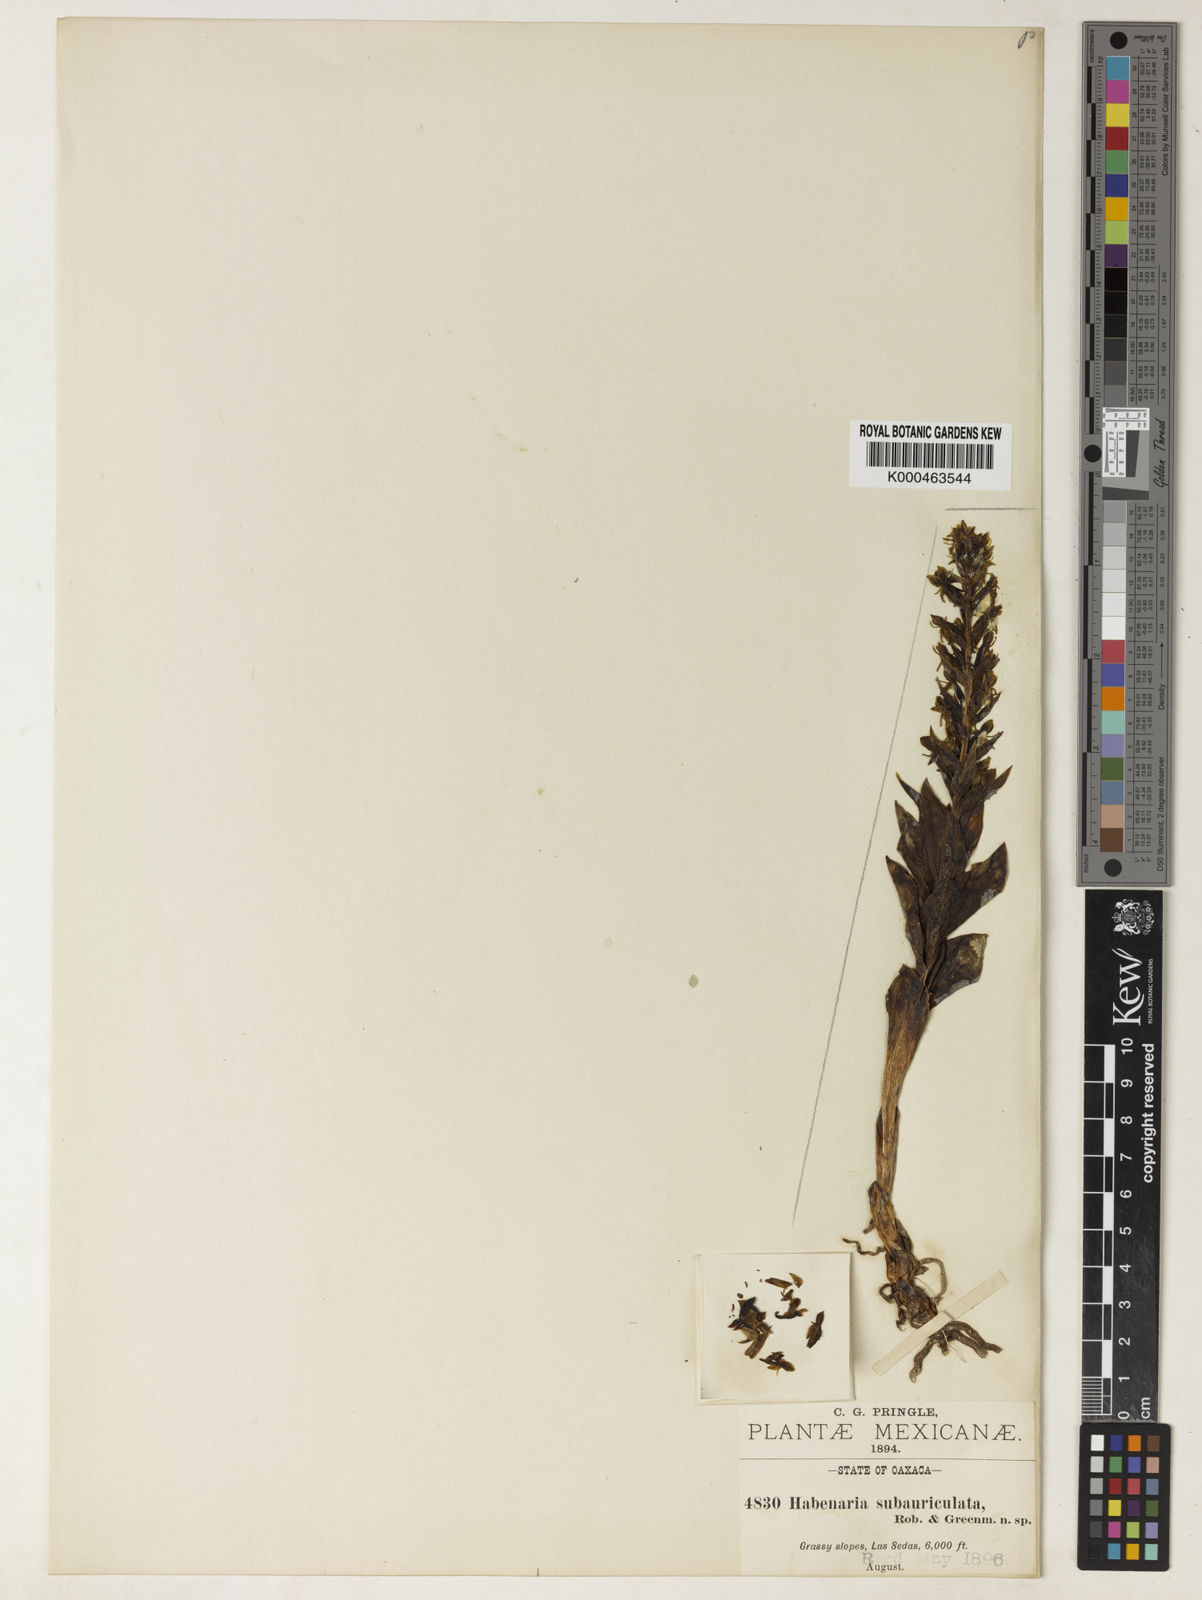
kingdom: Plantae
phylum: Tracheophyta
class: Liliopsida
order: Asparagales
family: Orchidaceae
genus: Habenaria
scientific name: Habenaria subauriculata
